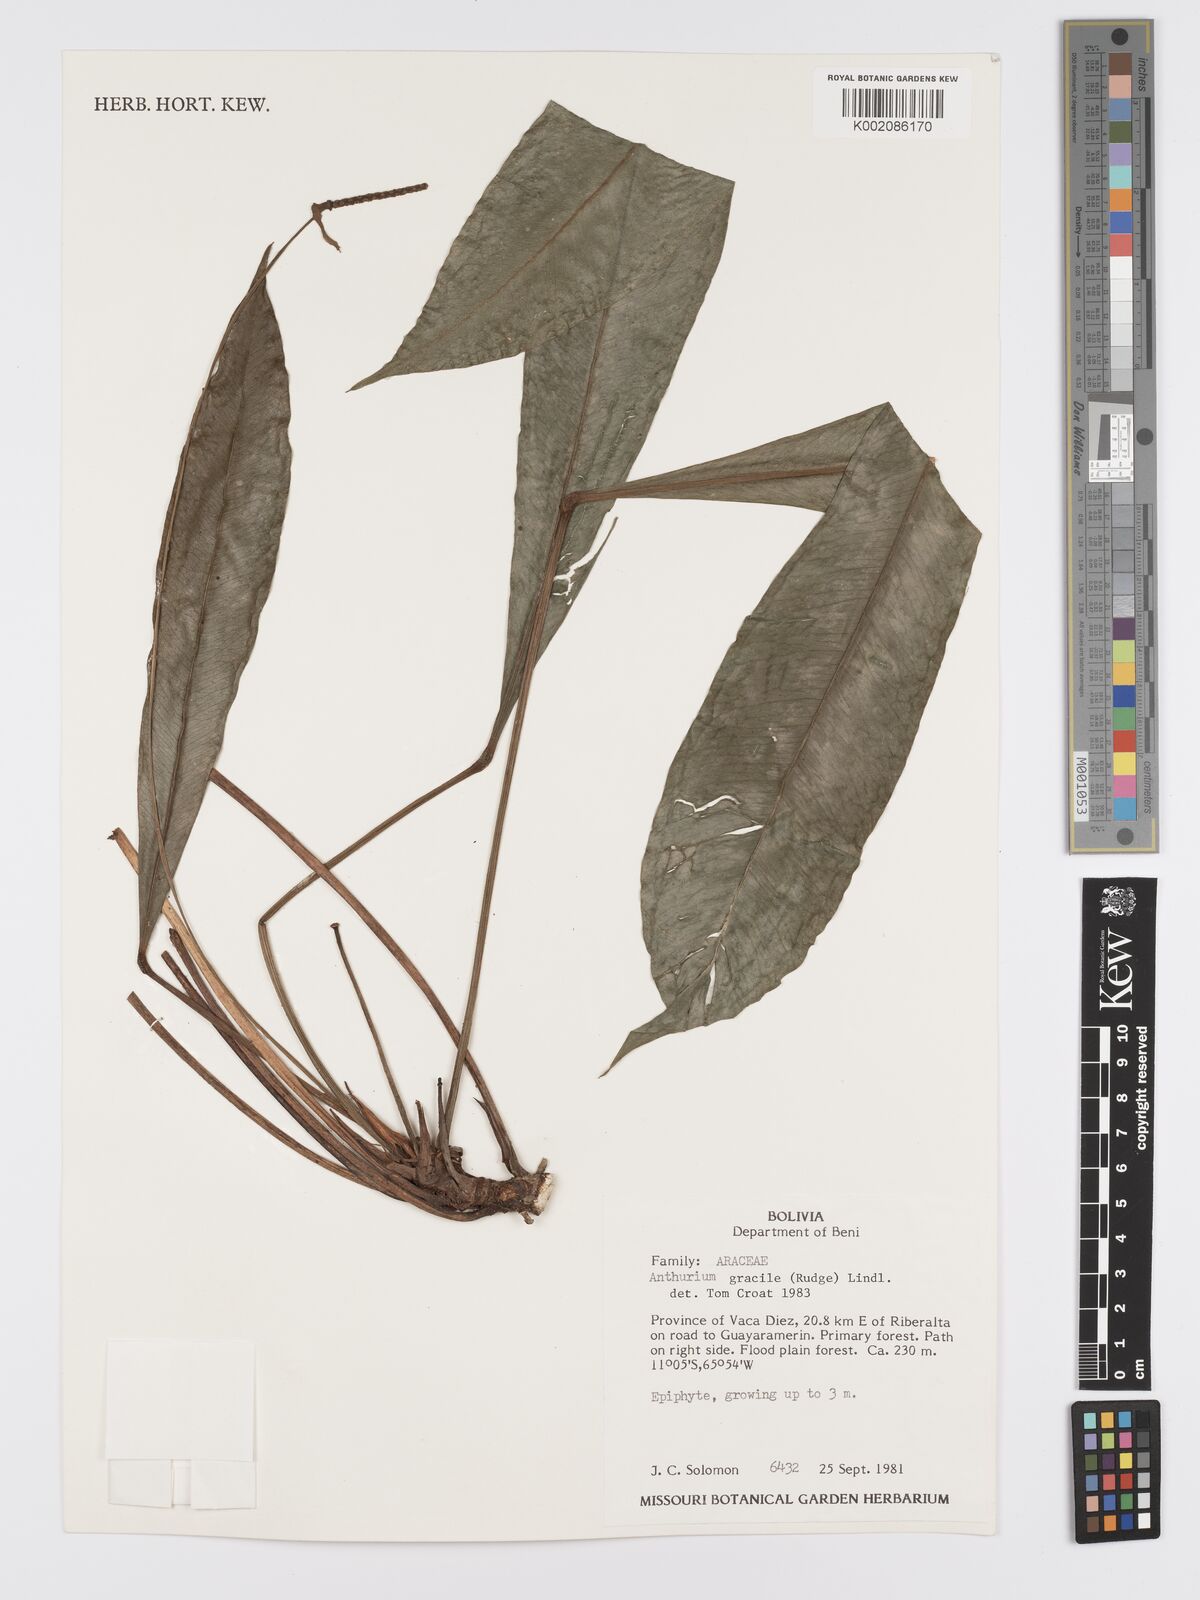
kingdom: Plantae
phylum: Tracheophyta
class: Liliopsida
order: Alismatales
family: Araceae
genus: Anthurium
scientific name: Anthurium gracile
